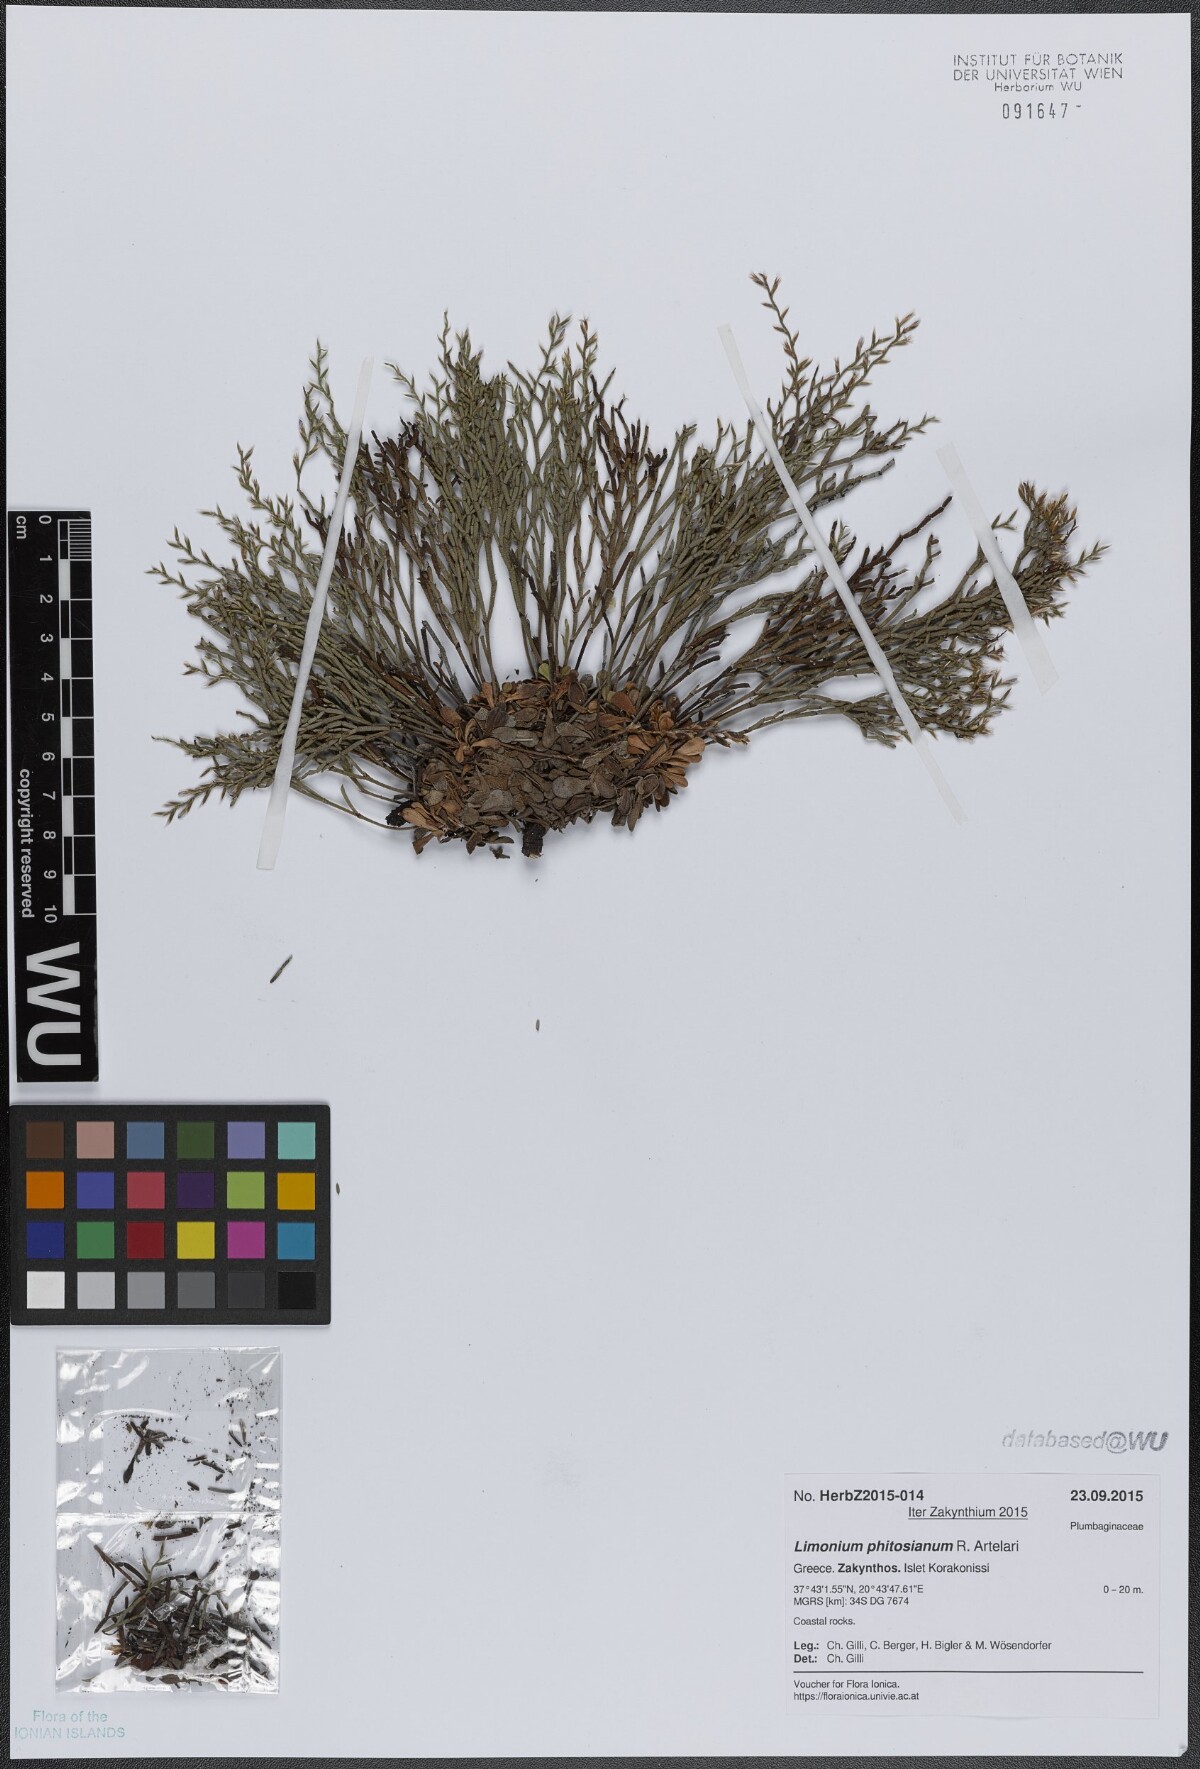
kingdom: Plantae
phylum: Tracheophyta
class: Magnoliopsida
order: Caryophyllales
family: Plumbaginaceae
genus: Limonium
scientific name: Limonium phitosianum
